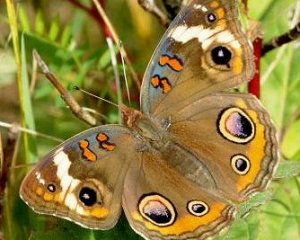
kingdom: Animalia
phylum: Arthropoda
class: Insecta
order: Lepidoptera
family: Nymphalidae
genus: Junonia
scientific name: Junonia coenia
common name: Common Buckeye
